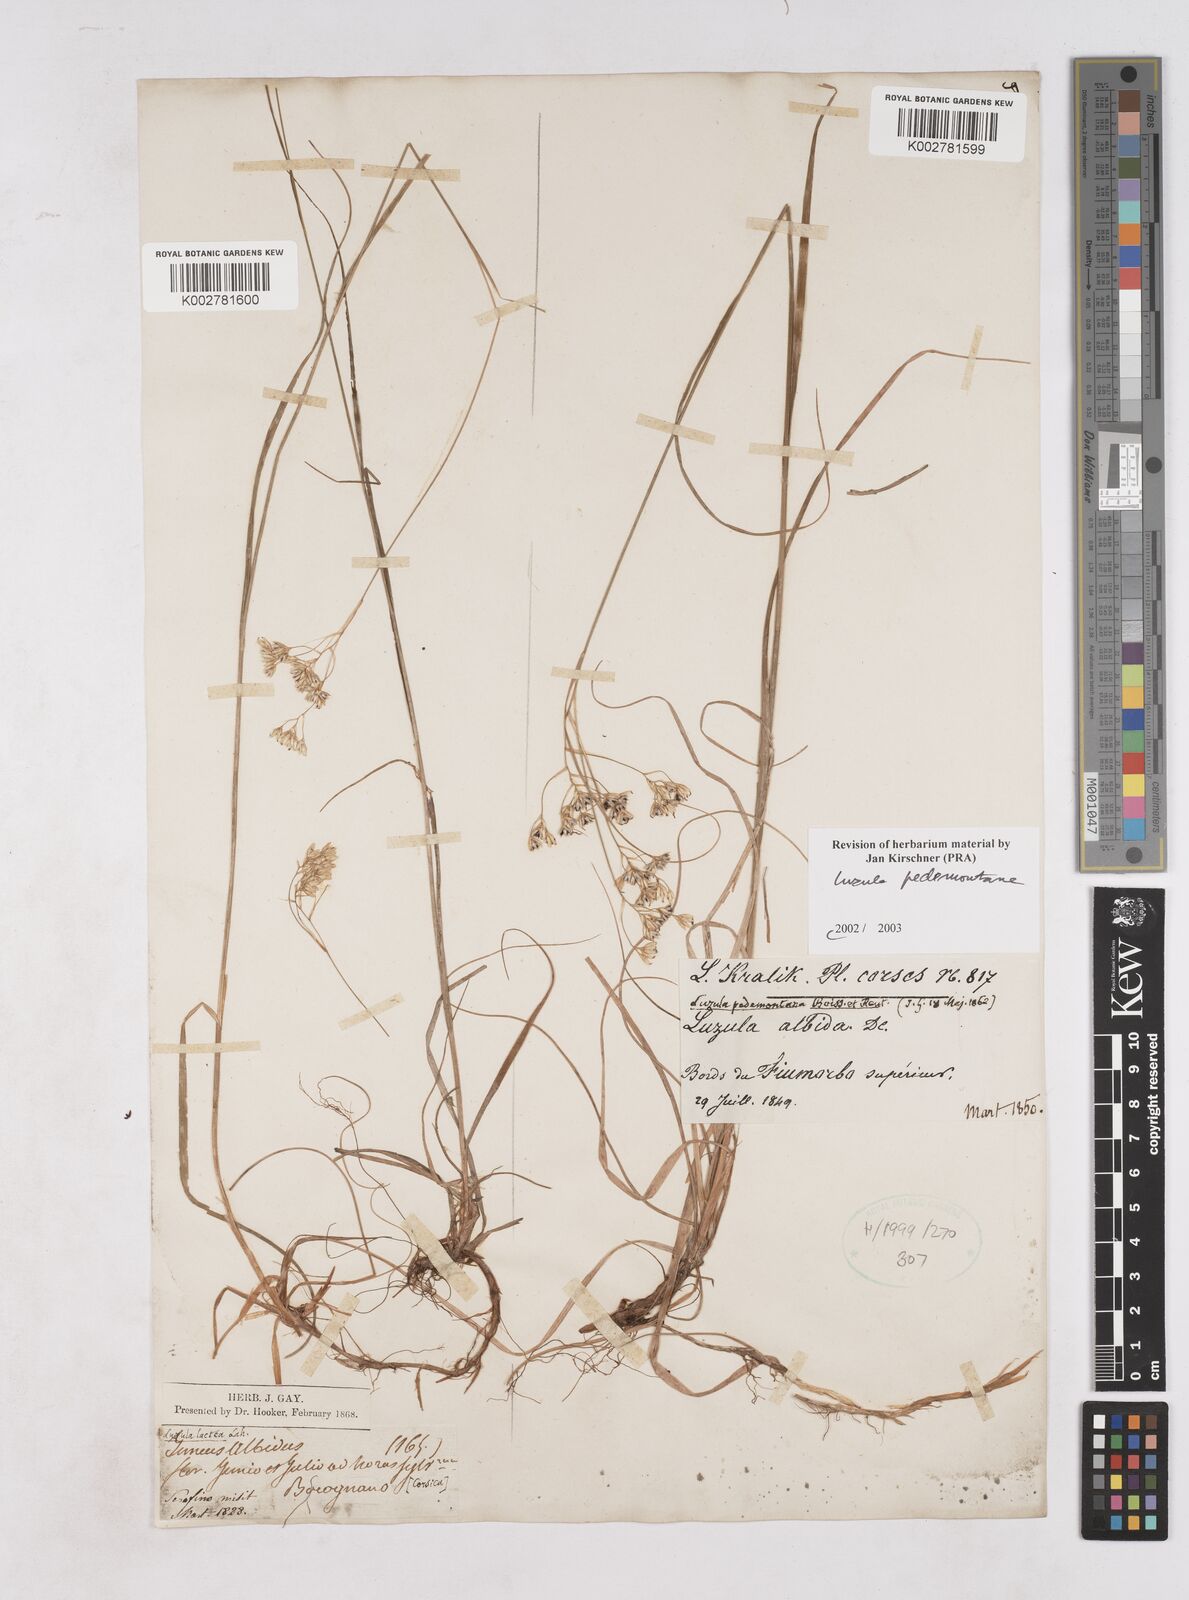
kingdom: Plantae
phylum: Tracheophyta
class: Liliopsida
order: Poales
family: Juncaceae
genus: Luzula
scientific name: Luzula pedemontana
